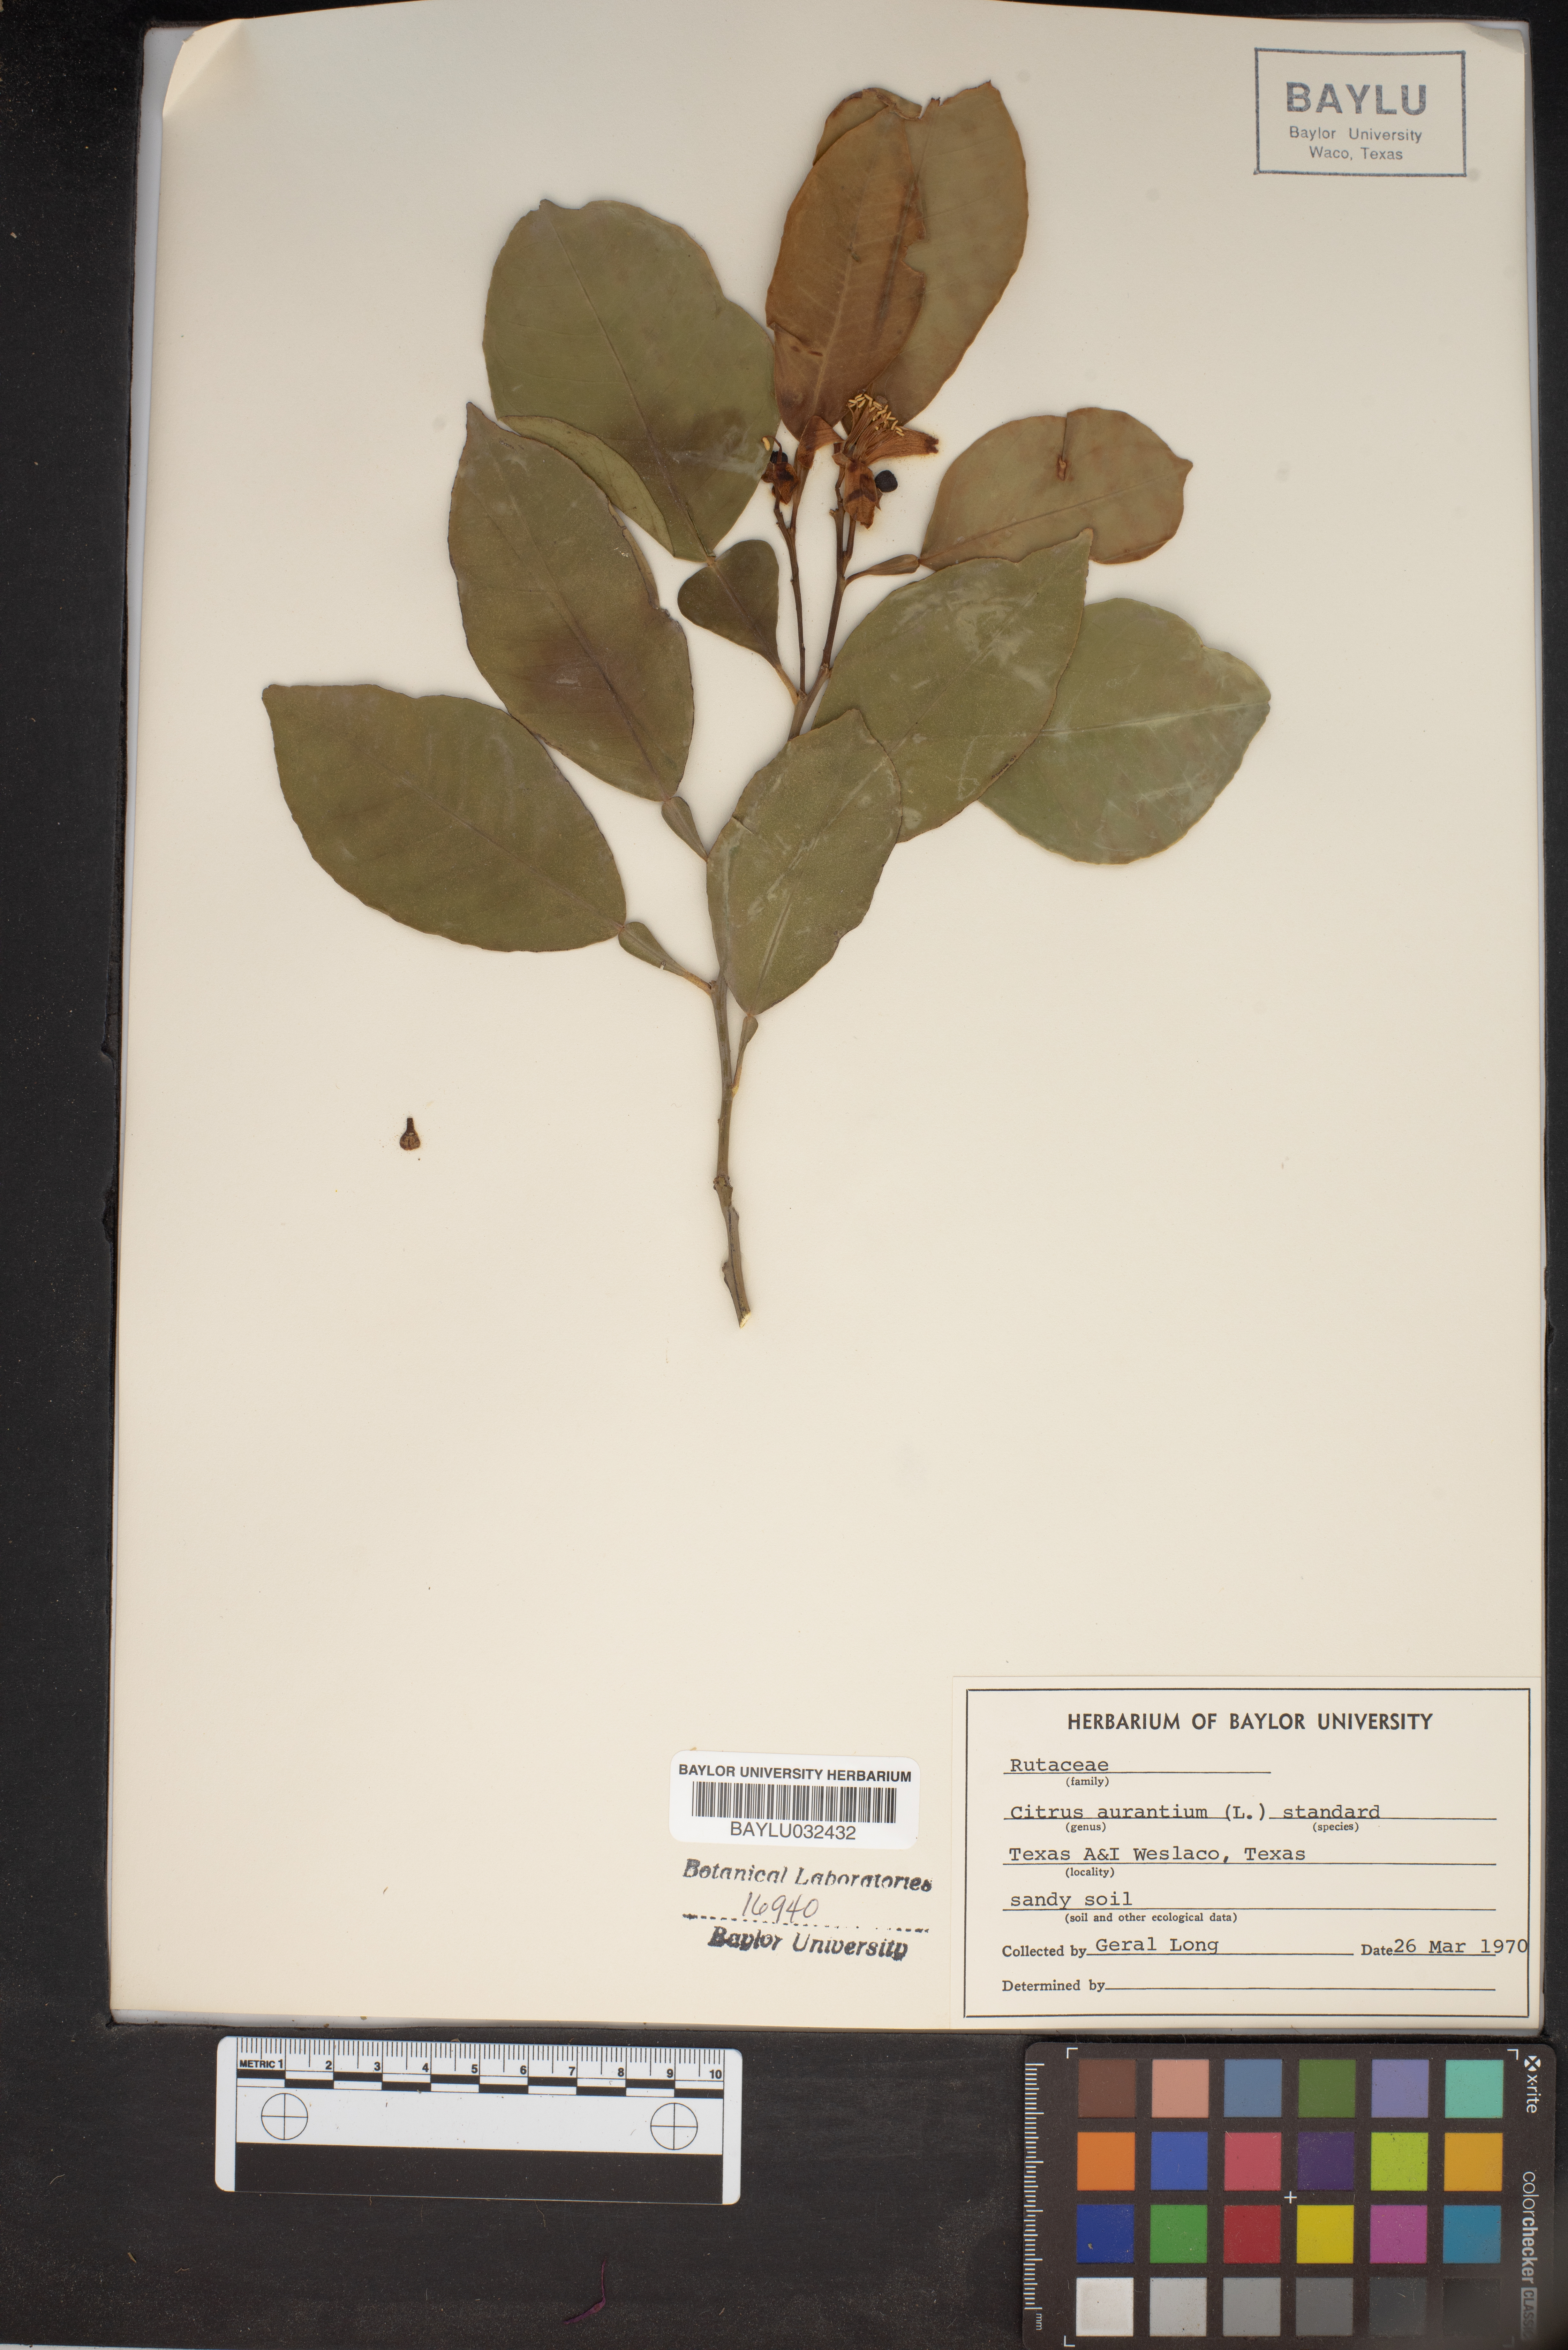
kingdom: Plantae
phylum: Tracheophyta
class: Magnoliopsida
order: Sapindales
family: Rutaceae
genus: Citrus
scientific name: Citrus aurantium
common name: Sour orange
